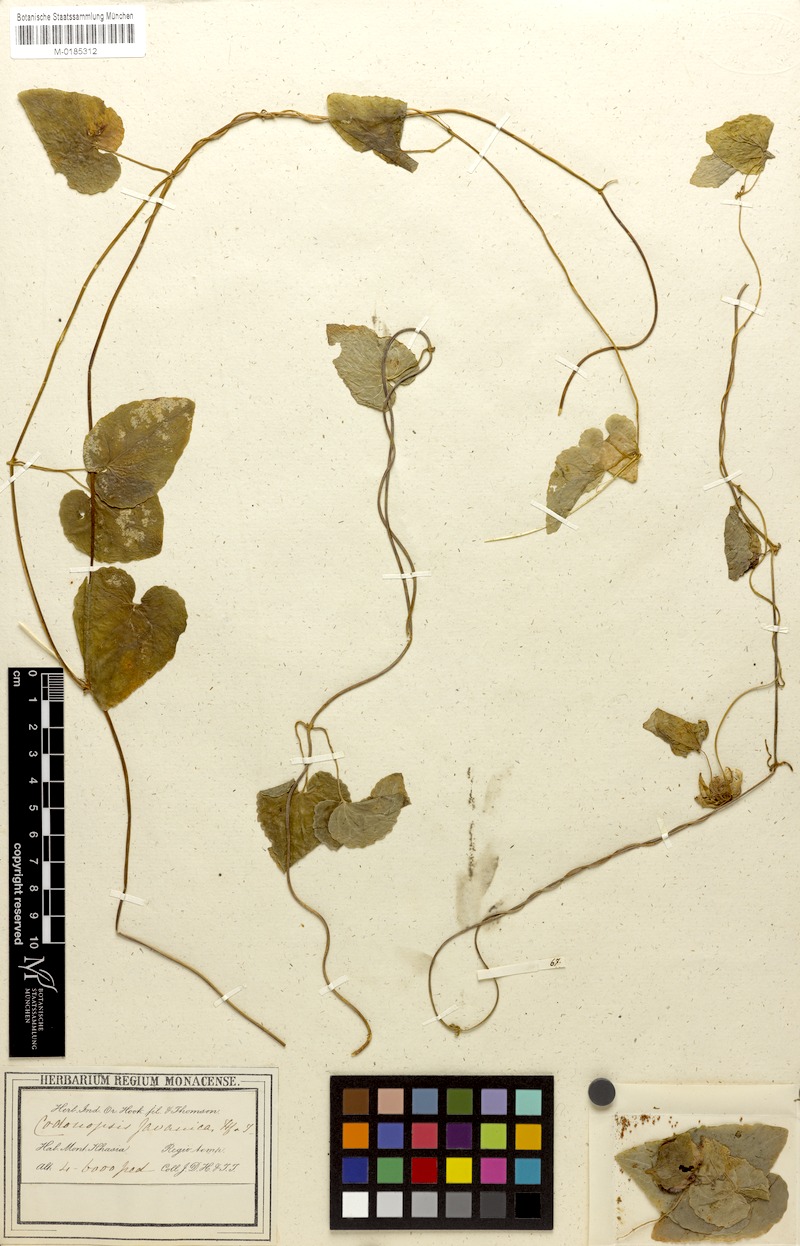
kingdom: Plantae
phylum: Tracheophyta
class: Magnoliopsida
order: Asterales
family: Campanulaceae
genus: Codonopsis
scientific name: Codonopsis javanica
